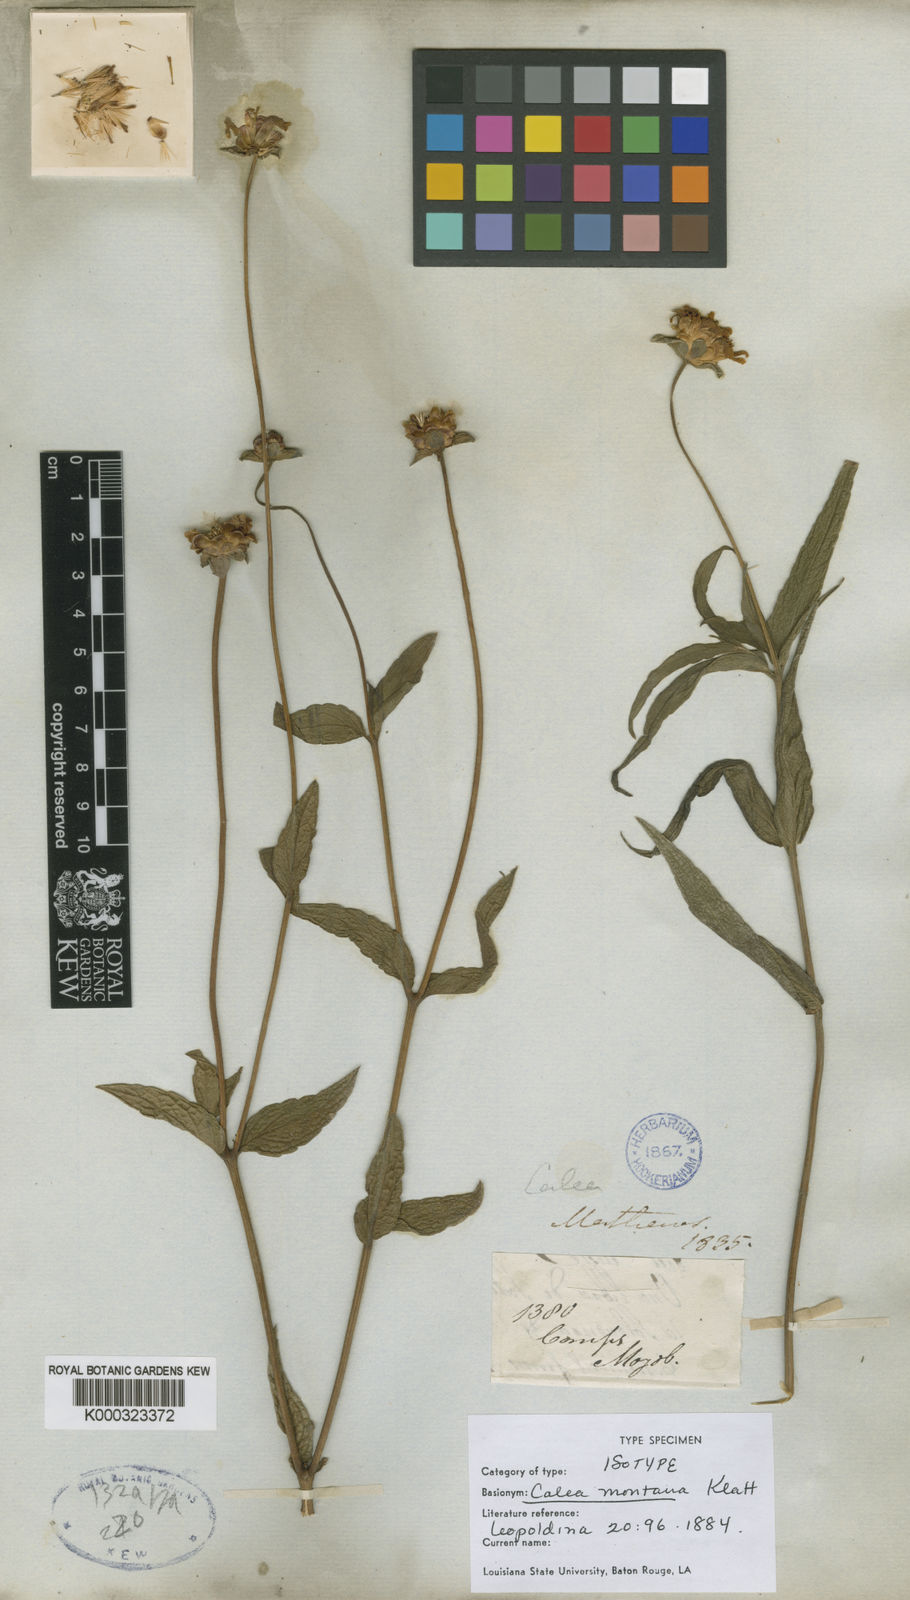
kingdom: Plantae
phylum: Tracheophyta
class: Magnoliopsida
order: Asterales
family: Asteraceae
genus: Calea
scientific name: Calea montana
